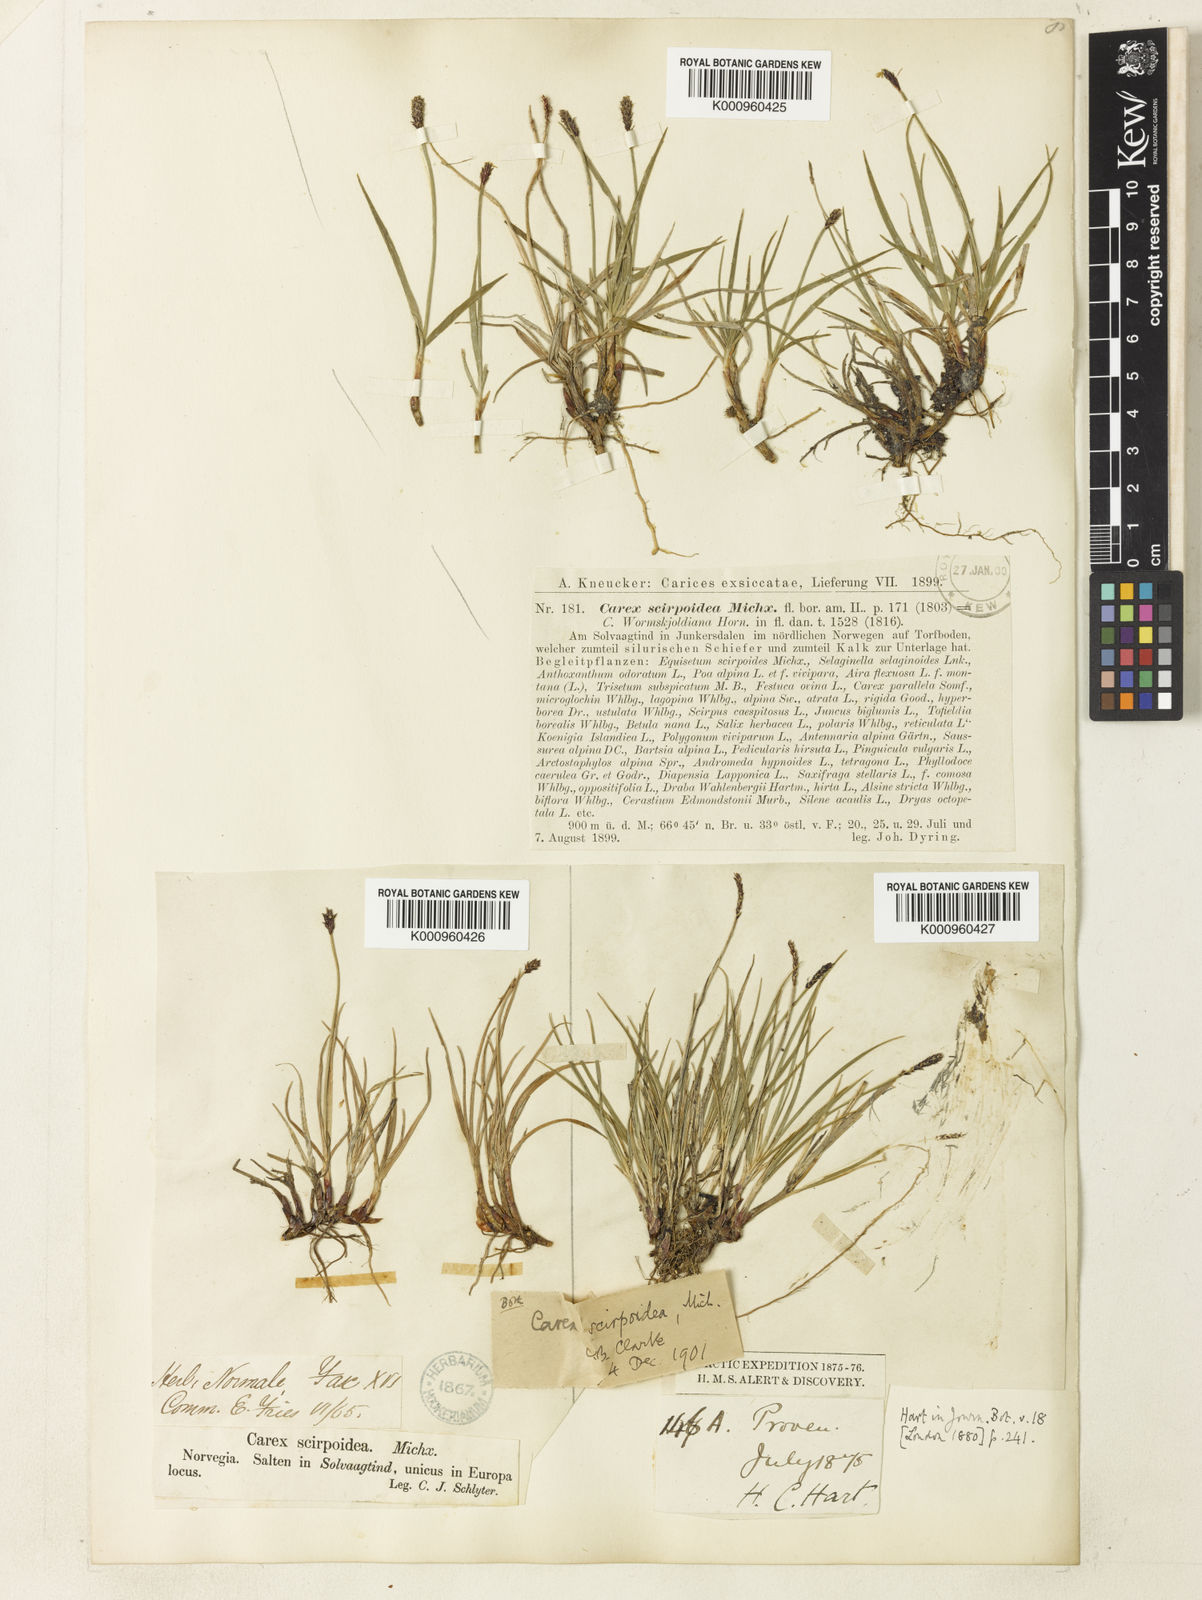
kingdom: Plantae
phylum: Tracheophyta
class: Liliopsida
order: Poales
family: Cyperaceae
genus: Carex
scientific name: Carex scirpoidea
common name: Canada single-spike sedge
